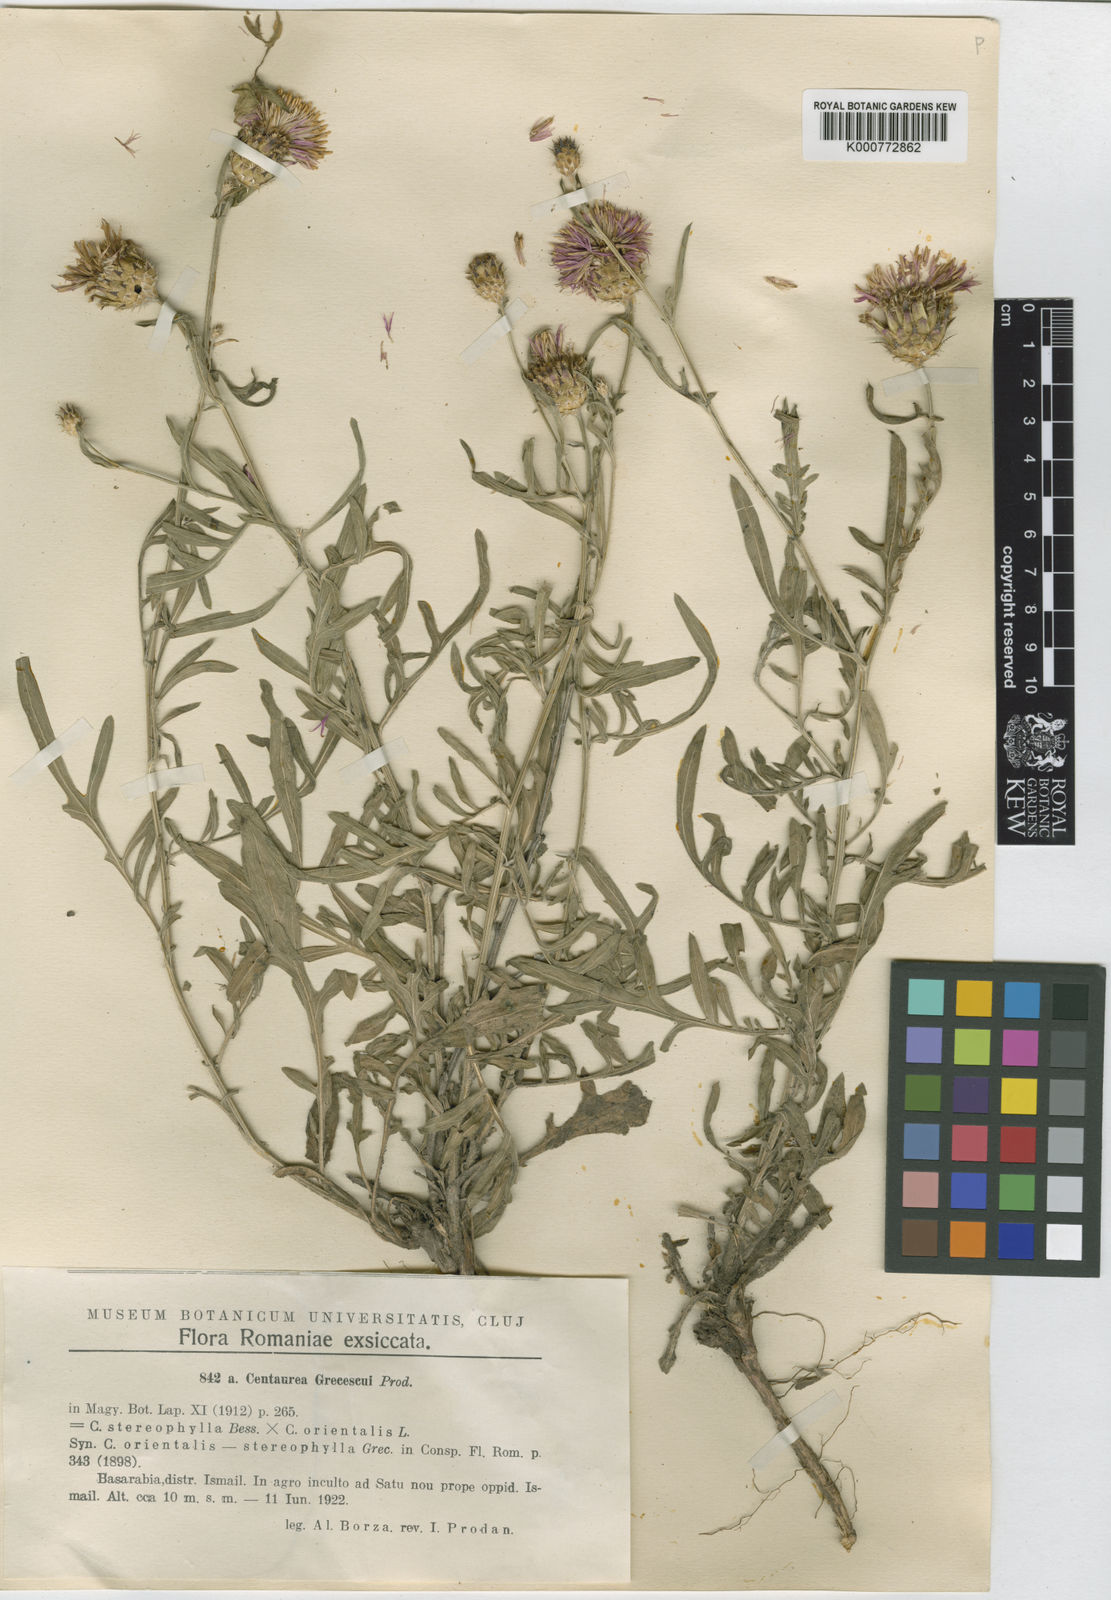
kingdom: Plantae
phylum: Tracheophyta
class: Magnoliopsida
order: Asterales
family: Asteraceae
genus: Centaurea
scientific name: Centaurea grecescui
